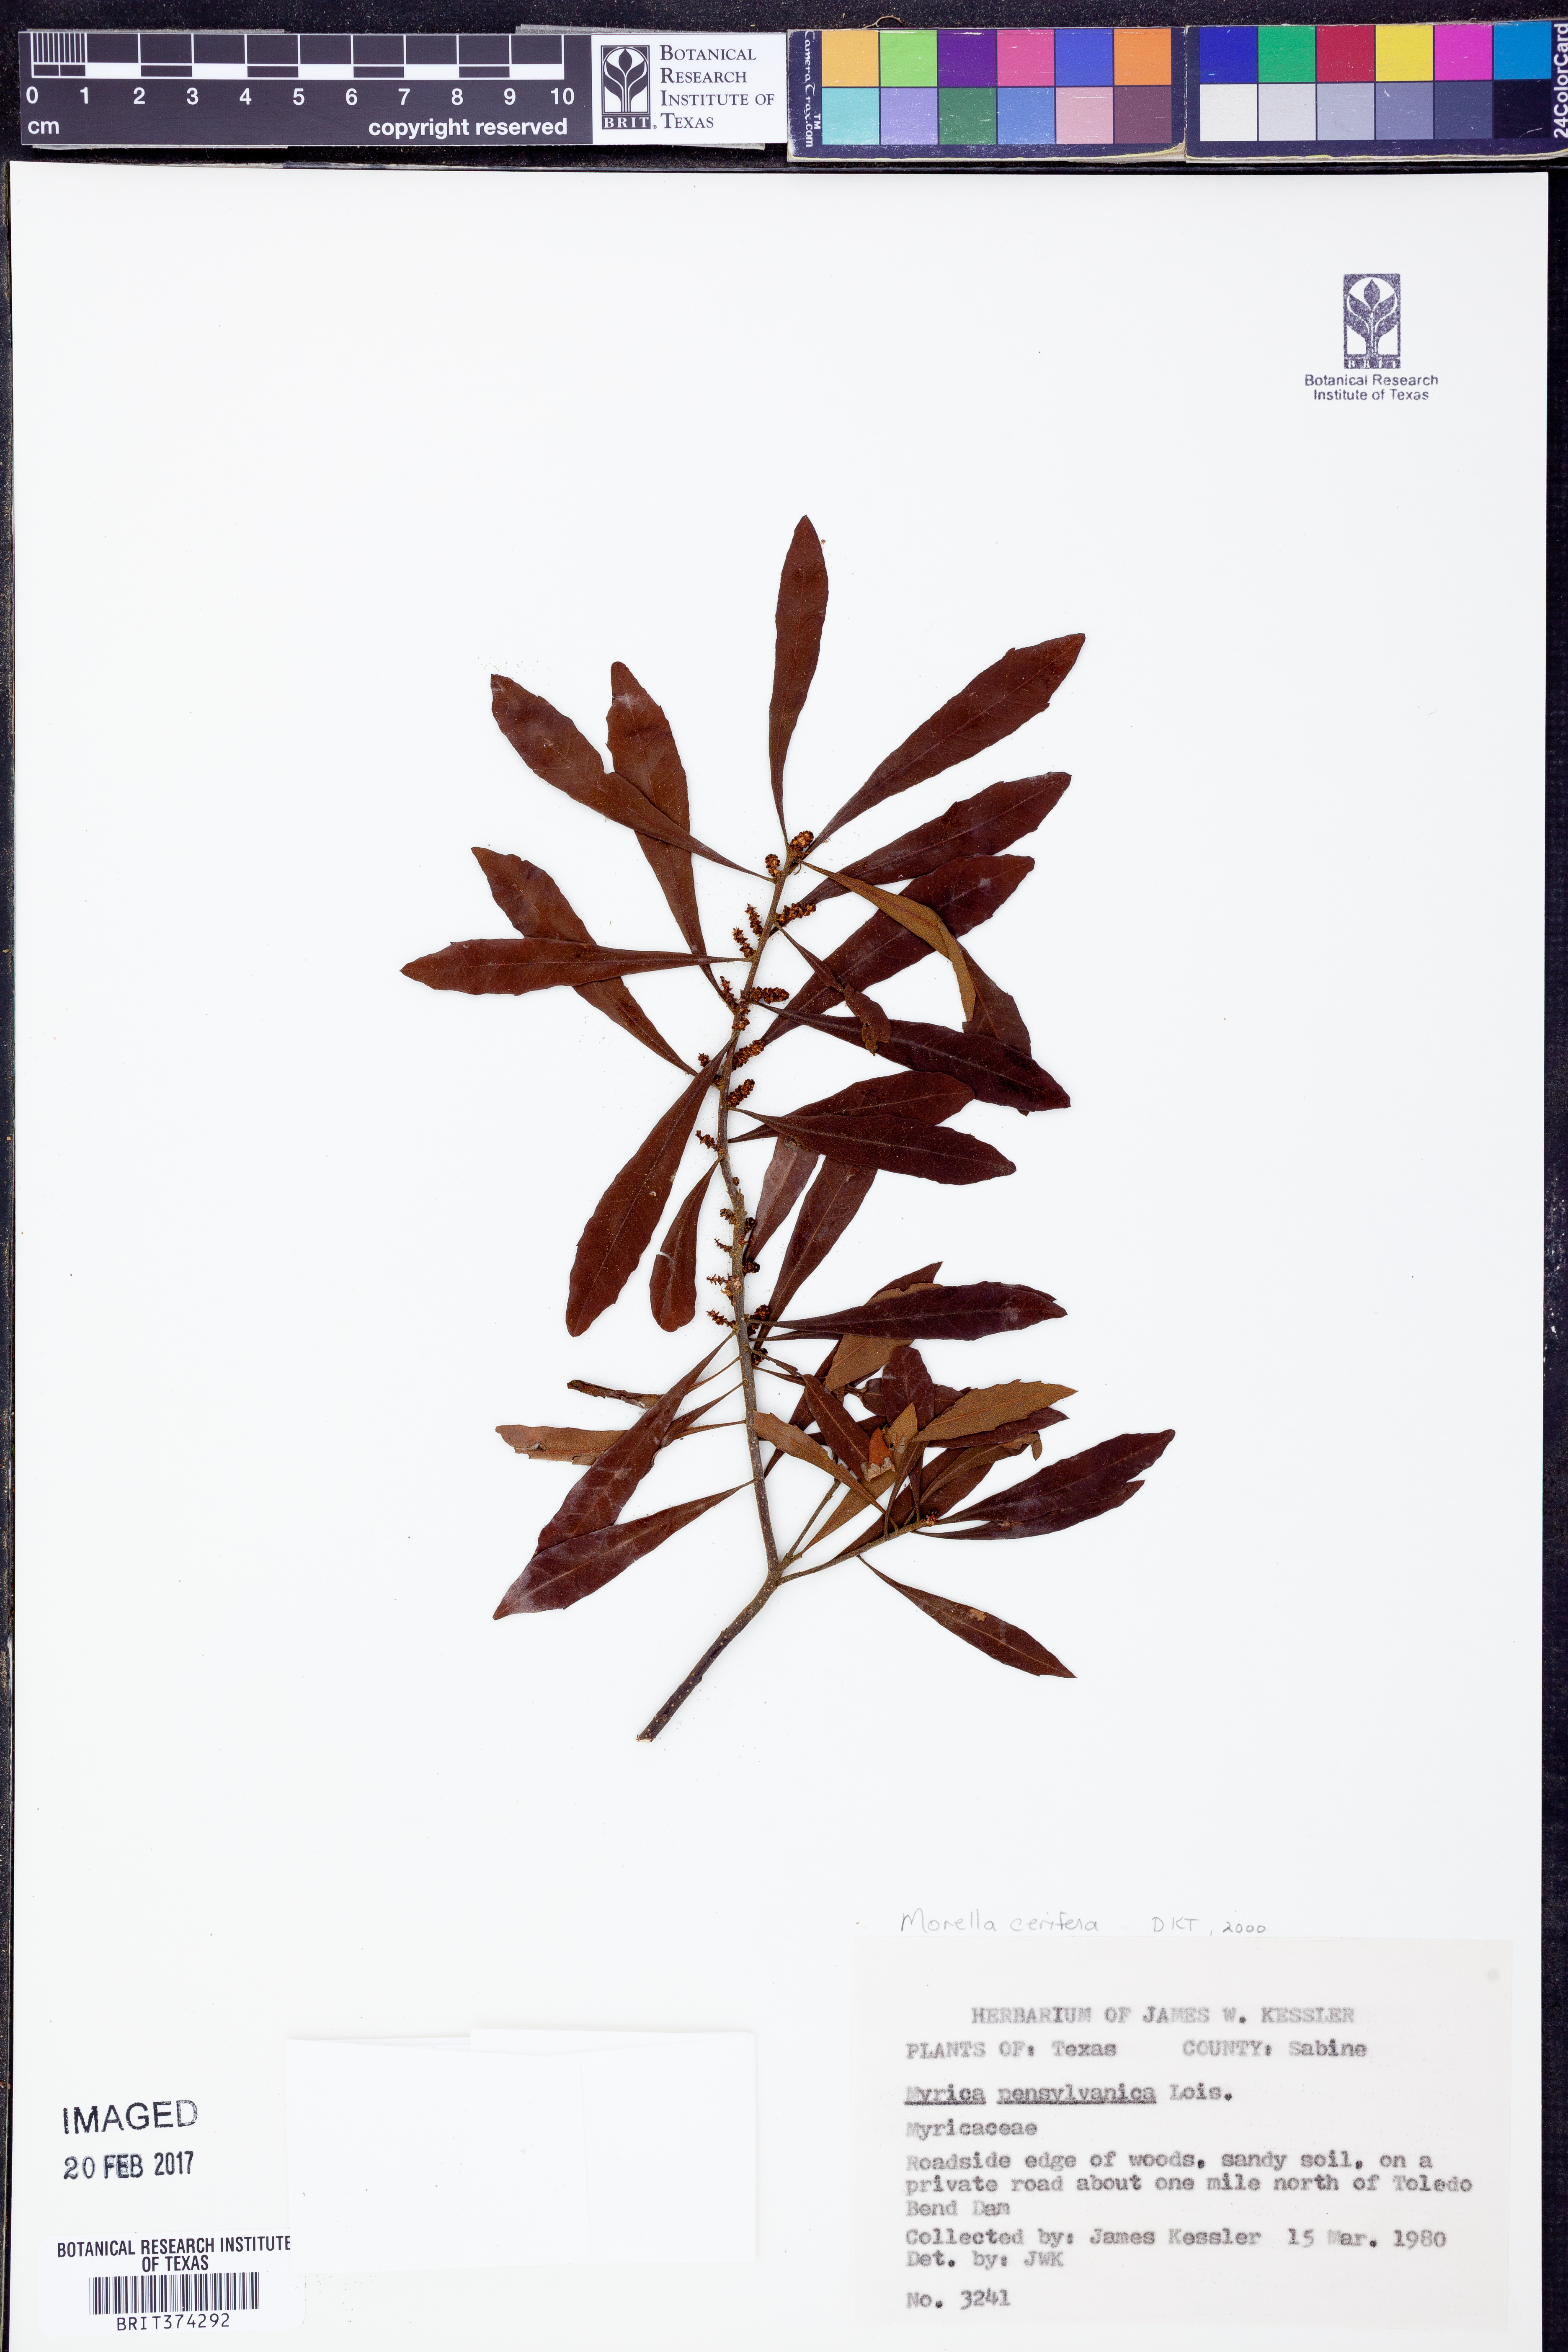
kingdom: Plantae
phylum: Tracheophyta
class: Magnoliopsida
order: Fagales
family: Myricaceae
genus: Morella
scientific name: Morella pensylvanica
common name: Northern bayberry
